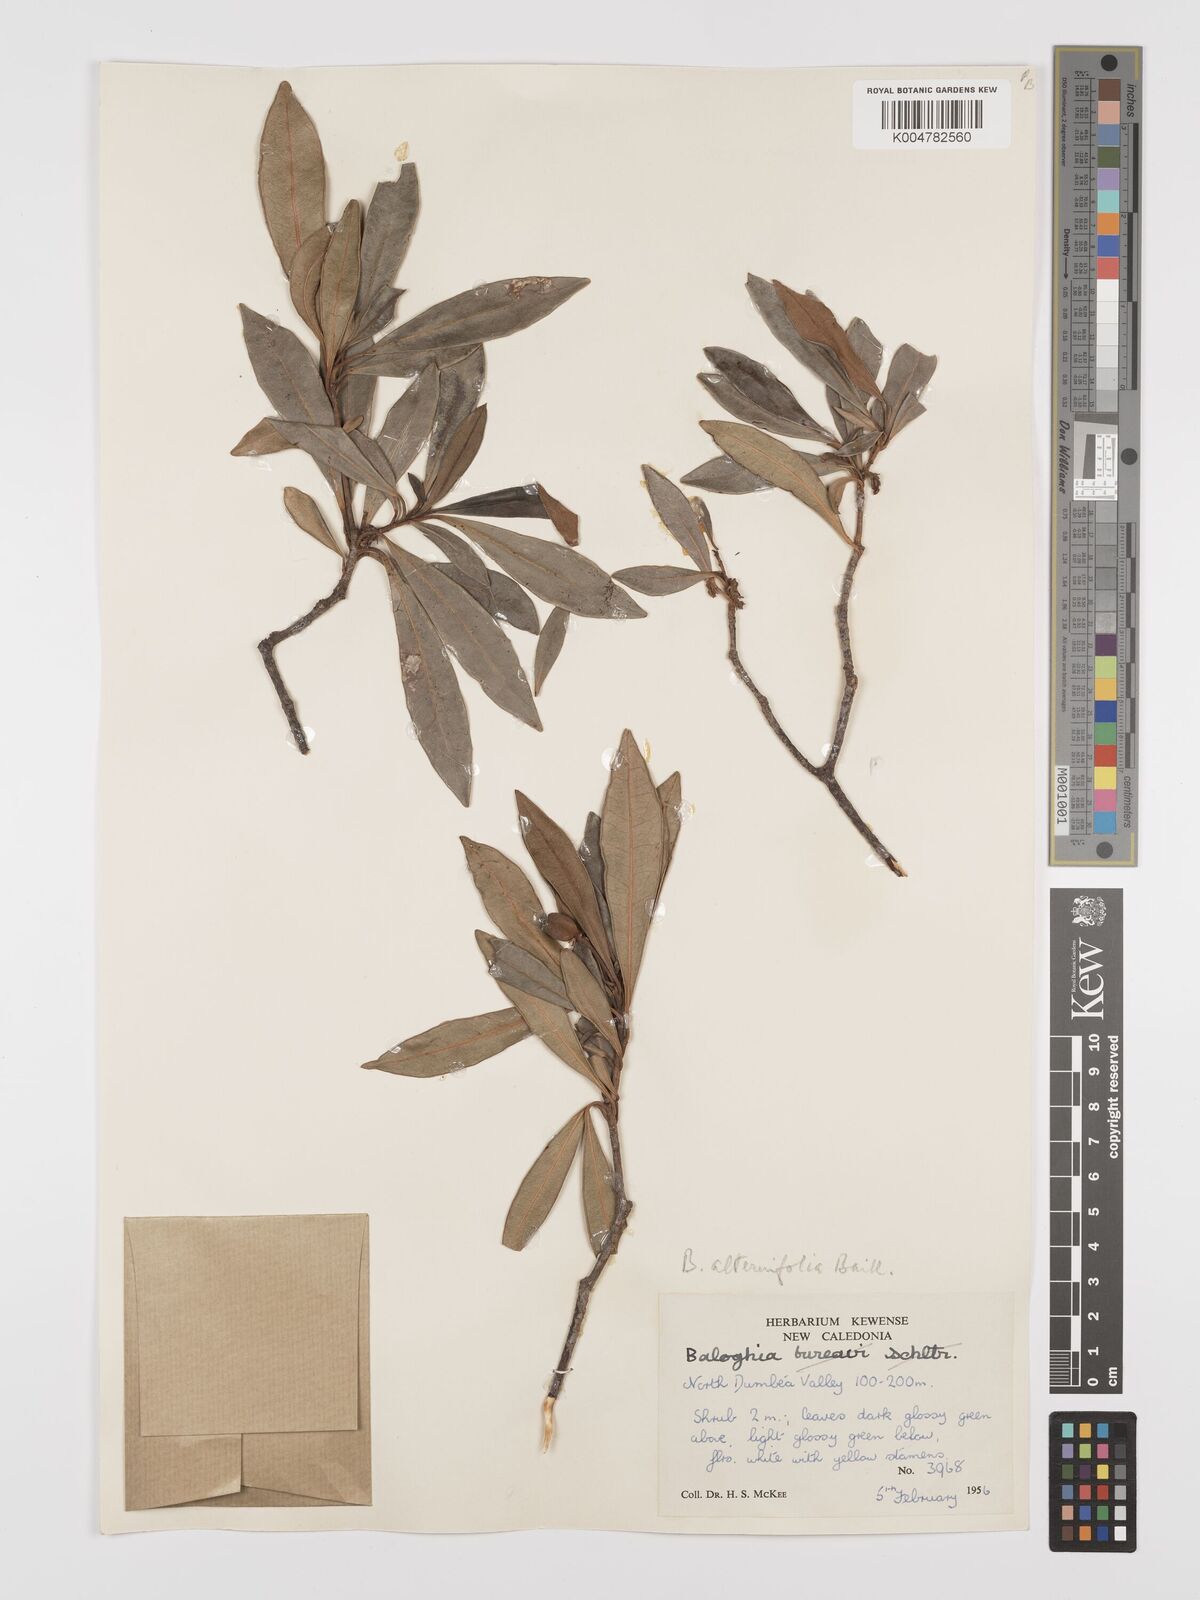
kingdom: Plantae
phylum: Tracheophyta
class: Magnoliopsida
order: Malpighiales
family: Euphorbiaceae
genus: Baloghia
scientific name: Baloghia alternifolia
